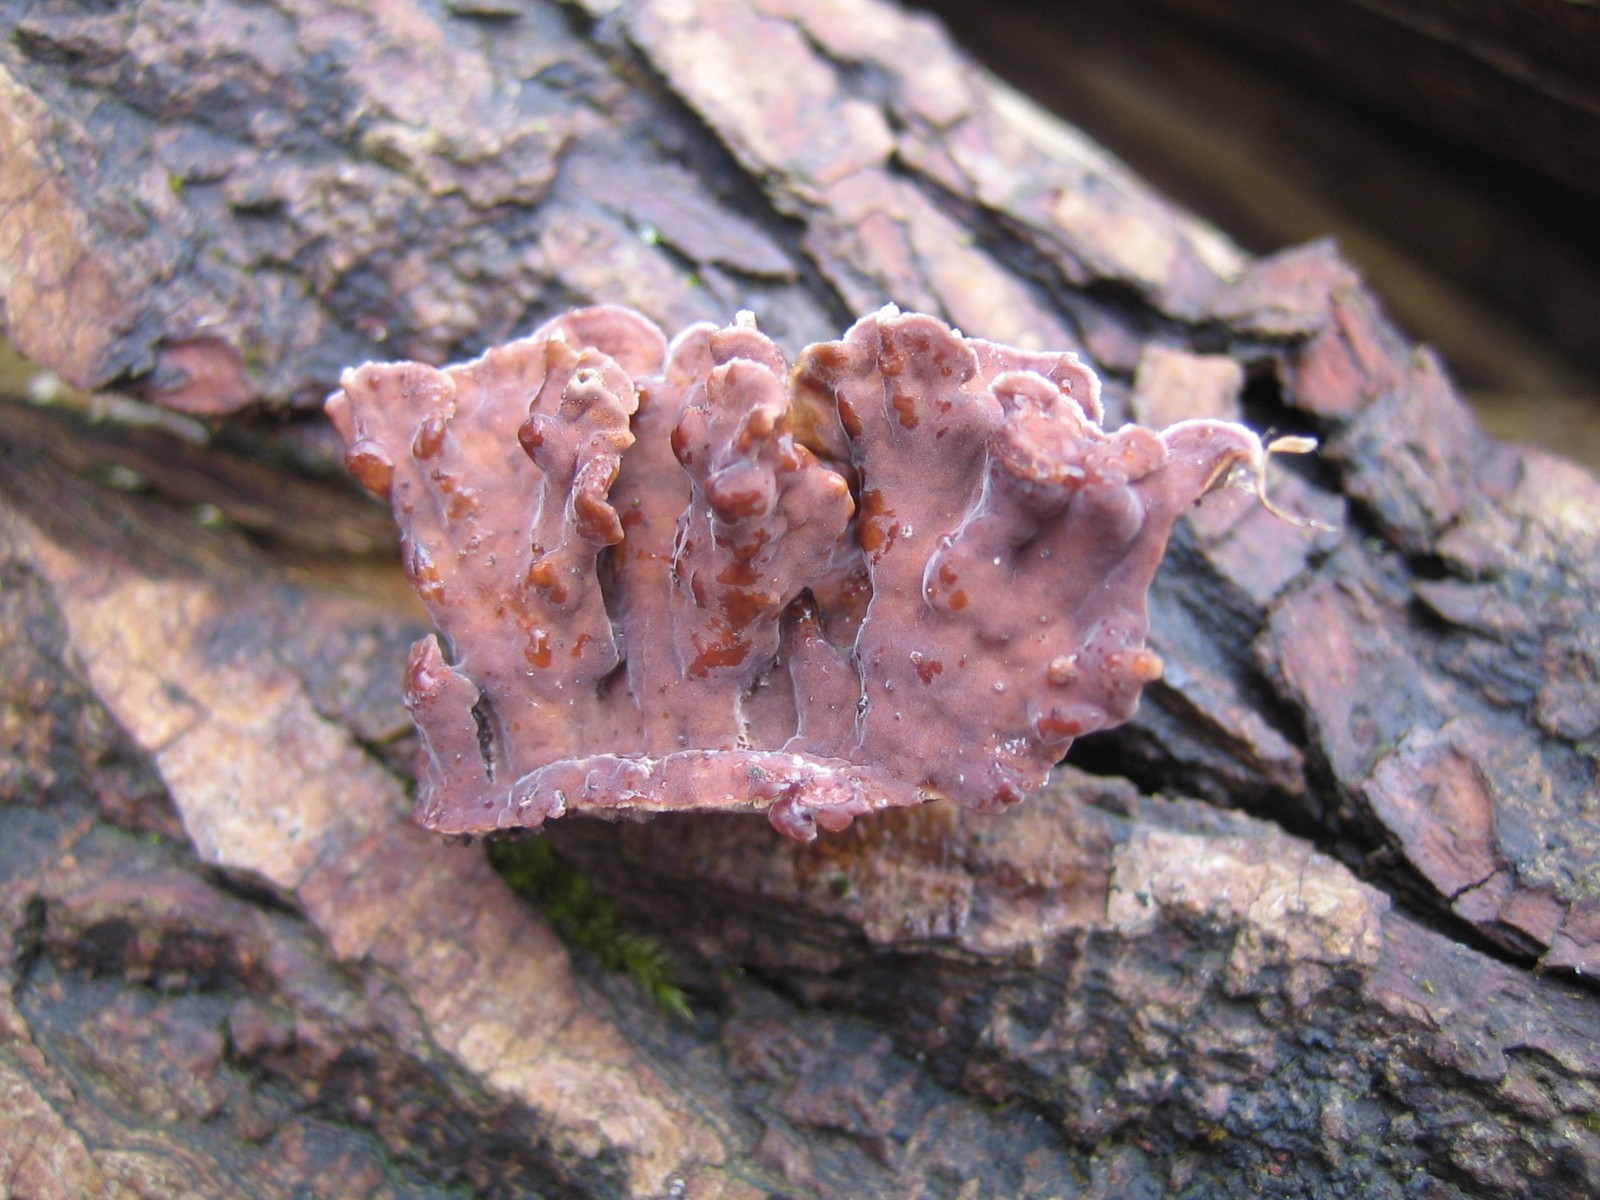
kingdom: Fungi
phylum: Basidiomycota
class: Agaricomycetes
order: Russulales
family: Stereaceae
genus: Stereum
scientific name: Stereum hirsutum
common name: håret lædersvamp
